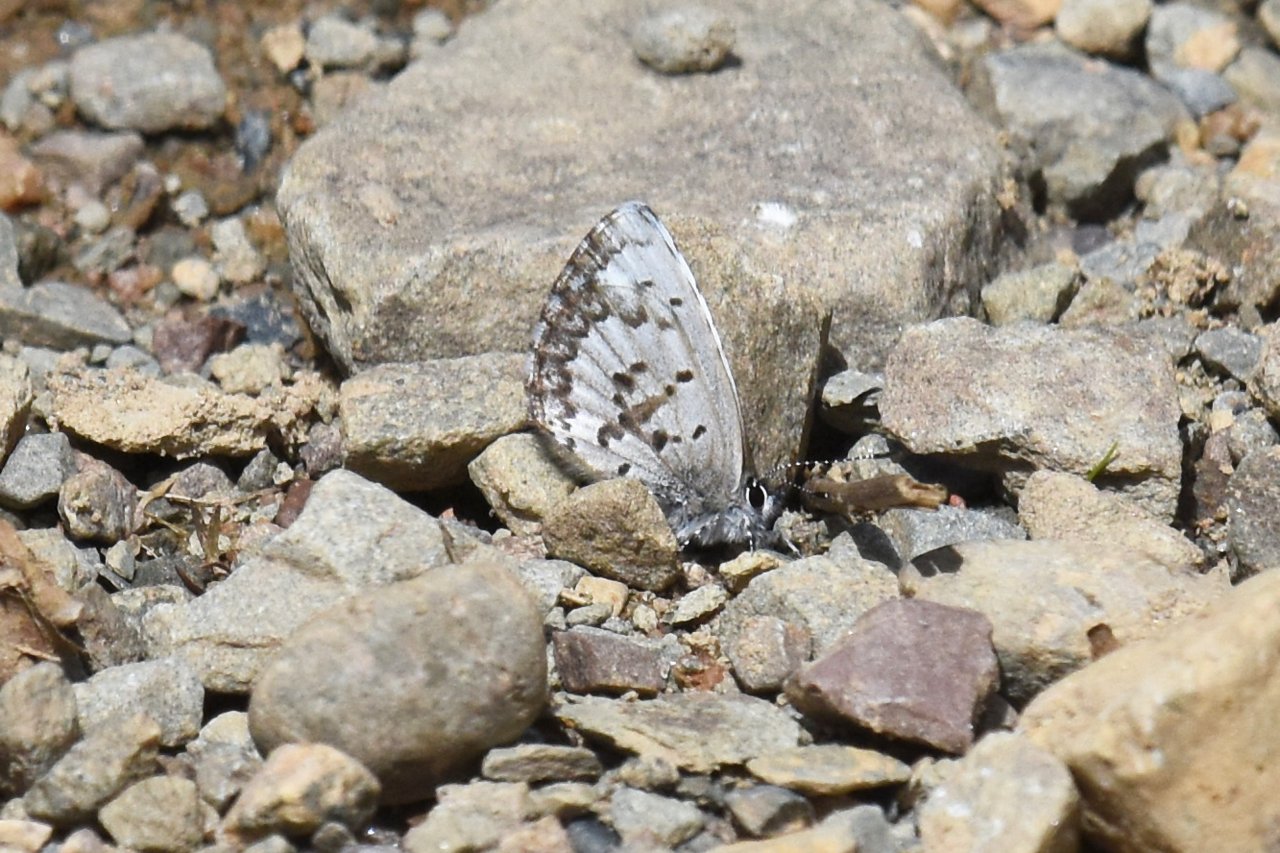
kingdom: Animalia
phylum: Arthropoda
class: Insecta
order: Lepidoptera
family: Lycaenidae
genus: Celastrina
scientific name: Celastrina lucia
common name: Northern Spring Azure
